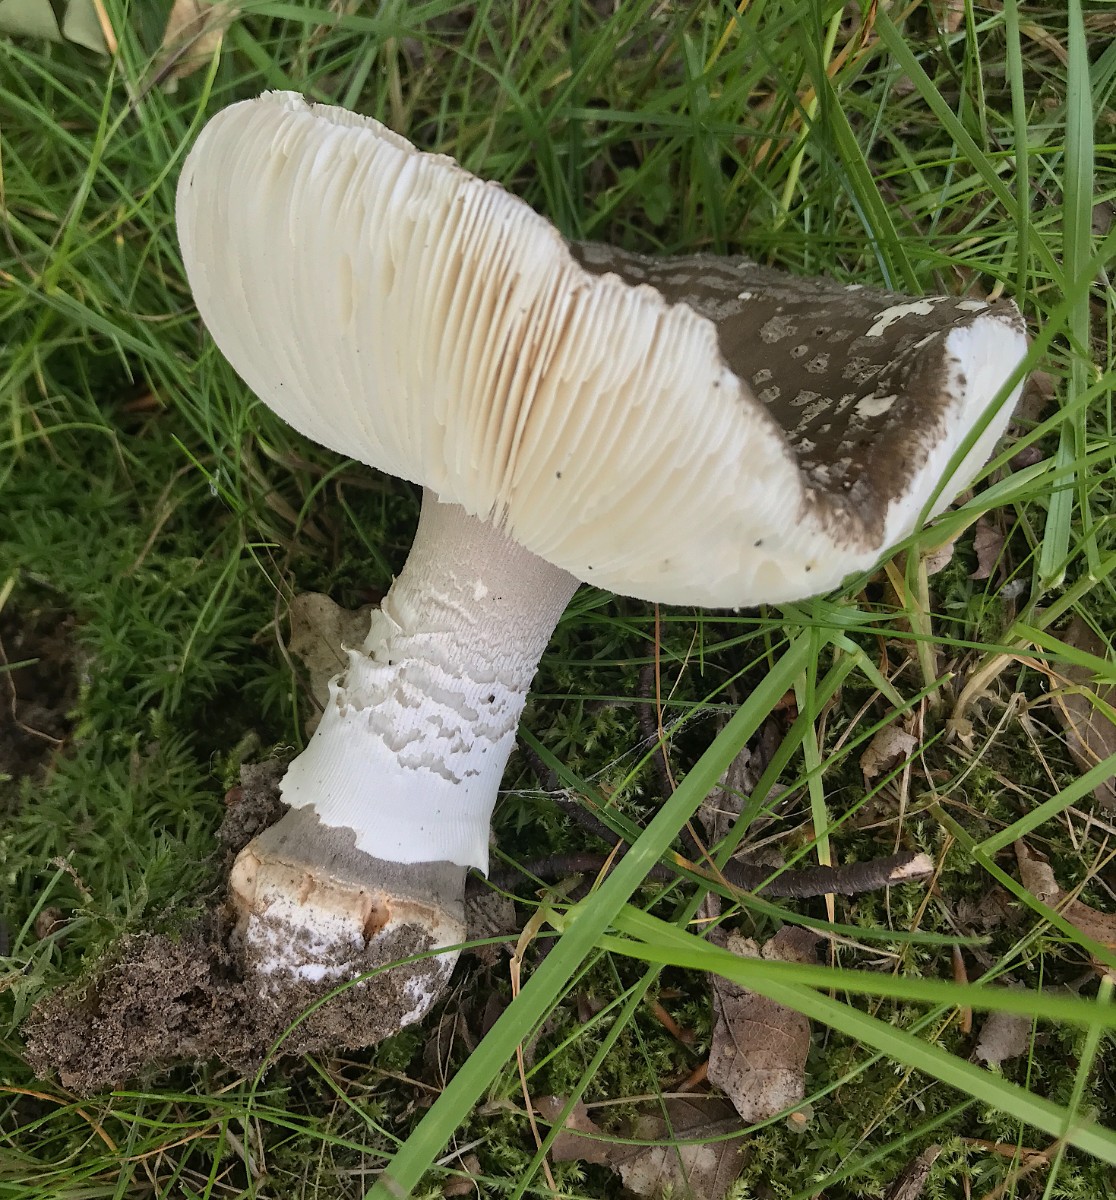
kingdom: Fungi
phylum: Basidiomycota
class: Agaricomycetes
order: Agaricales
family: Amanitaceae
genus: Amanita
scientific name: Amanita
